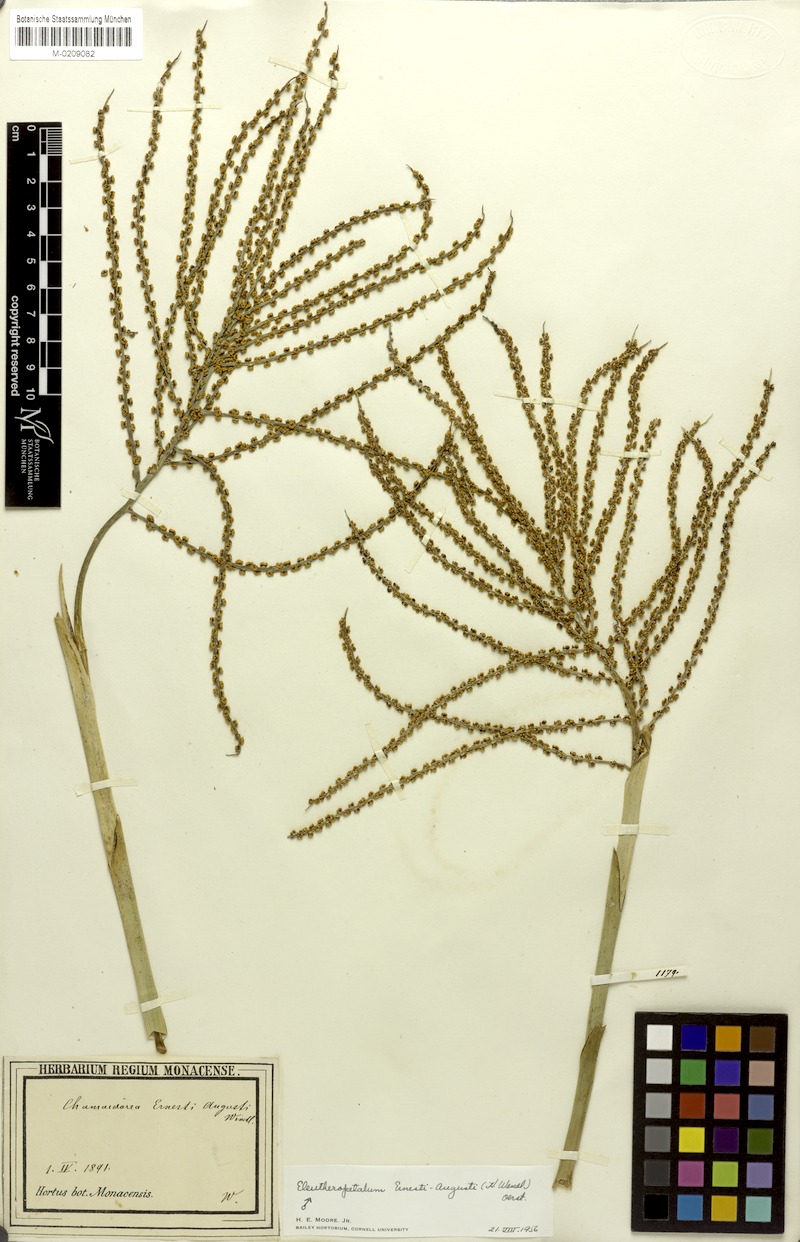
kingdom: Plantae
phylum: Tracheophyta
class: Liliopsida
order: Arecales
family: Arecaceae
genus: Chamaedorea
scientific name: Chamaedorea ernesti-augusti
